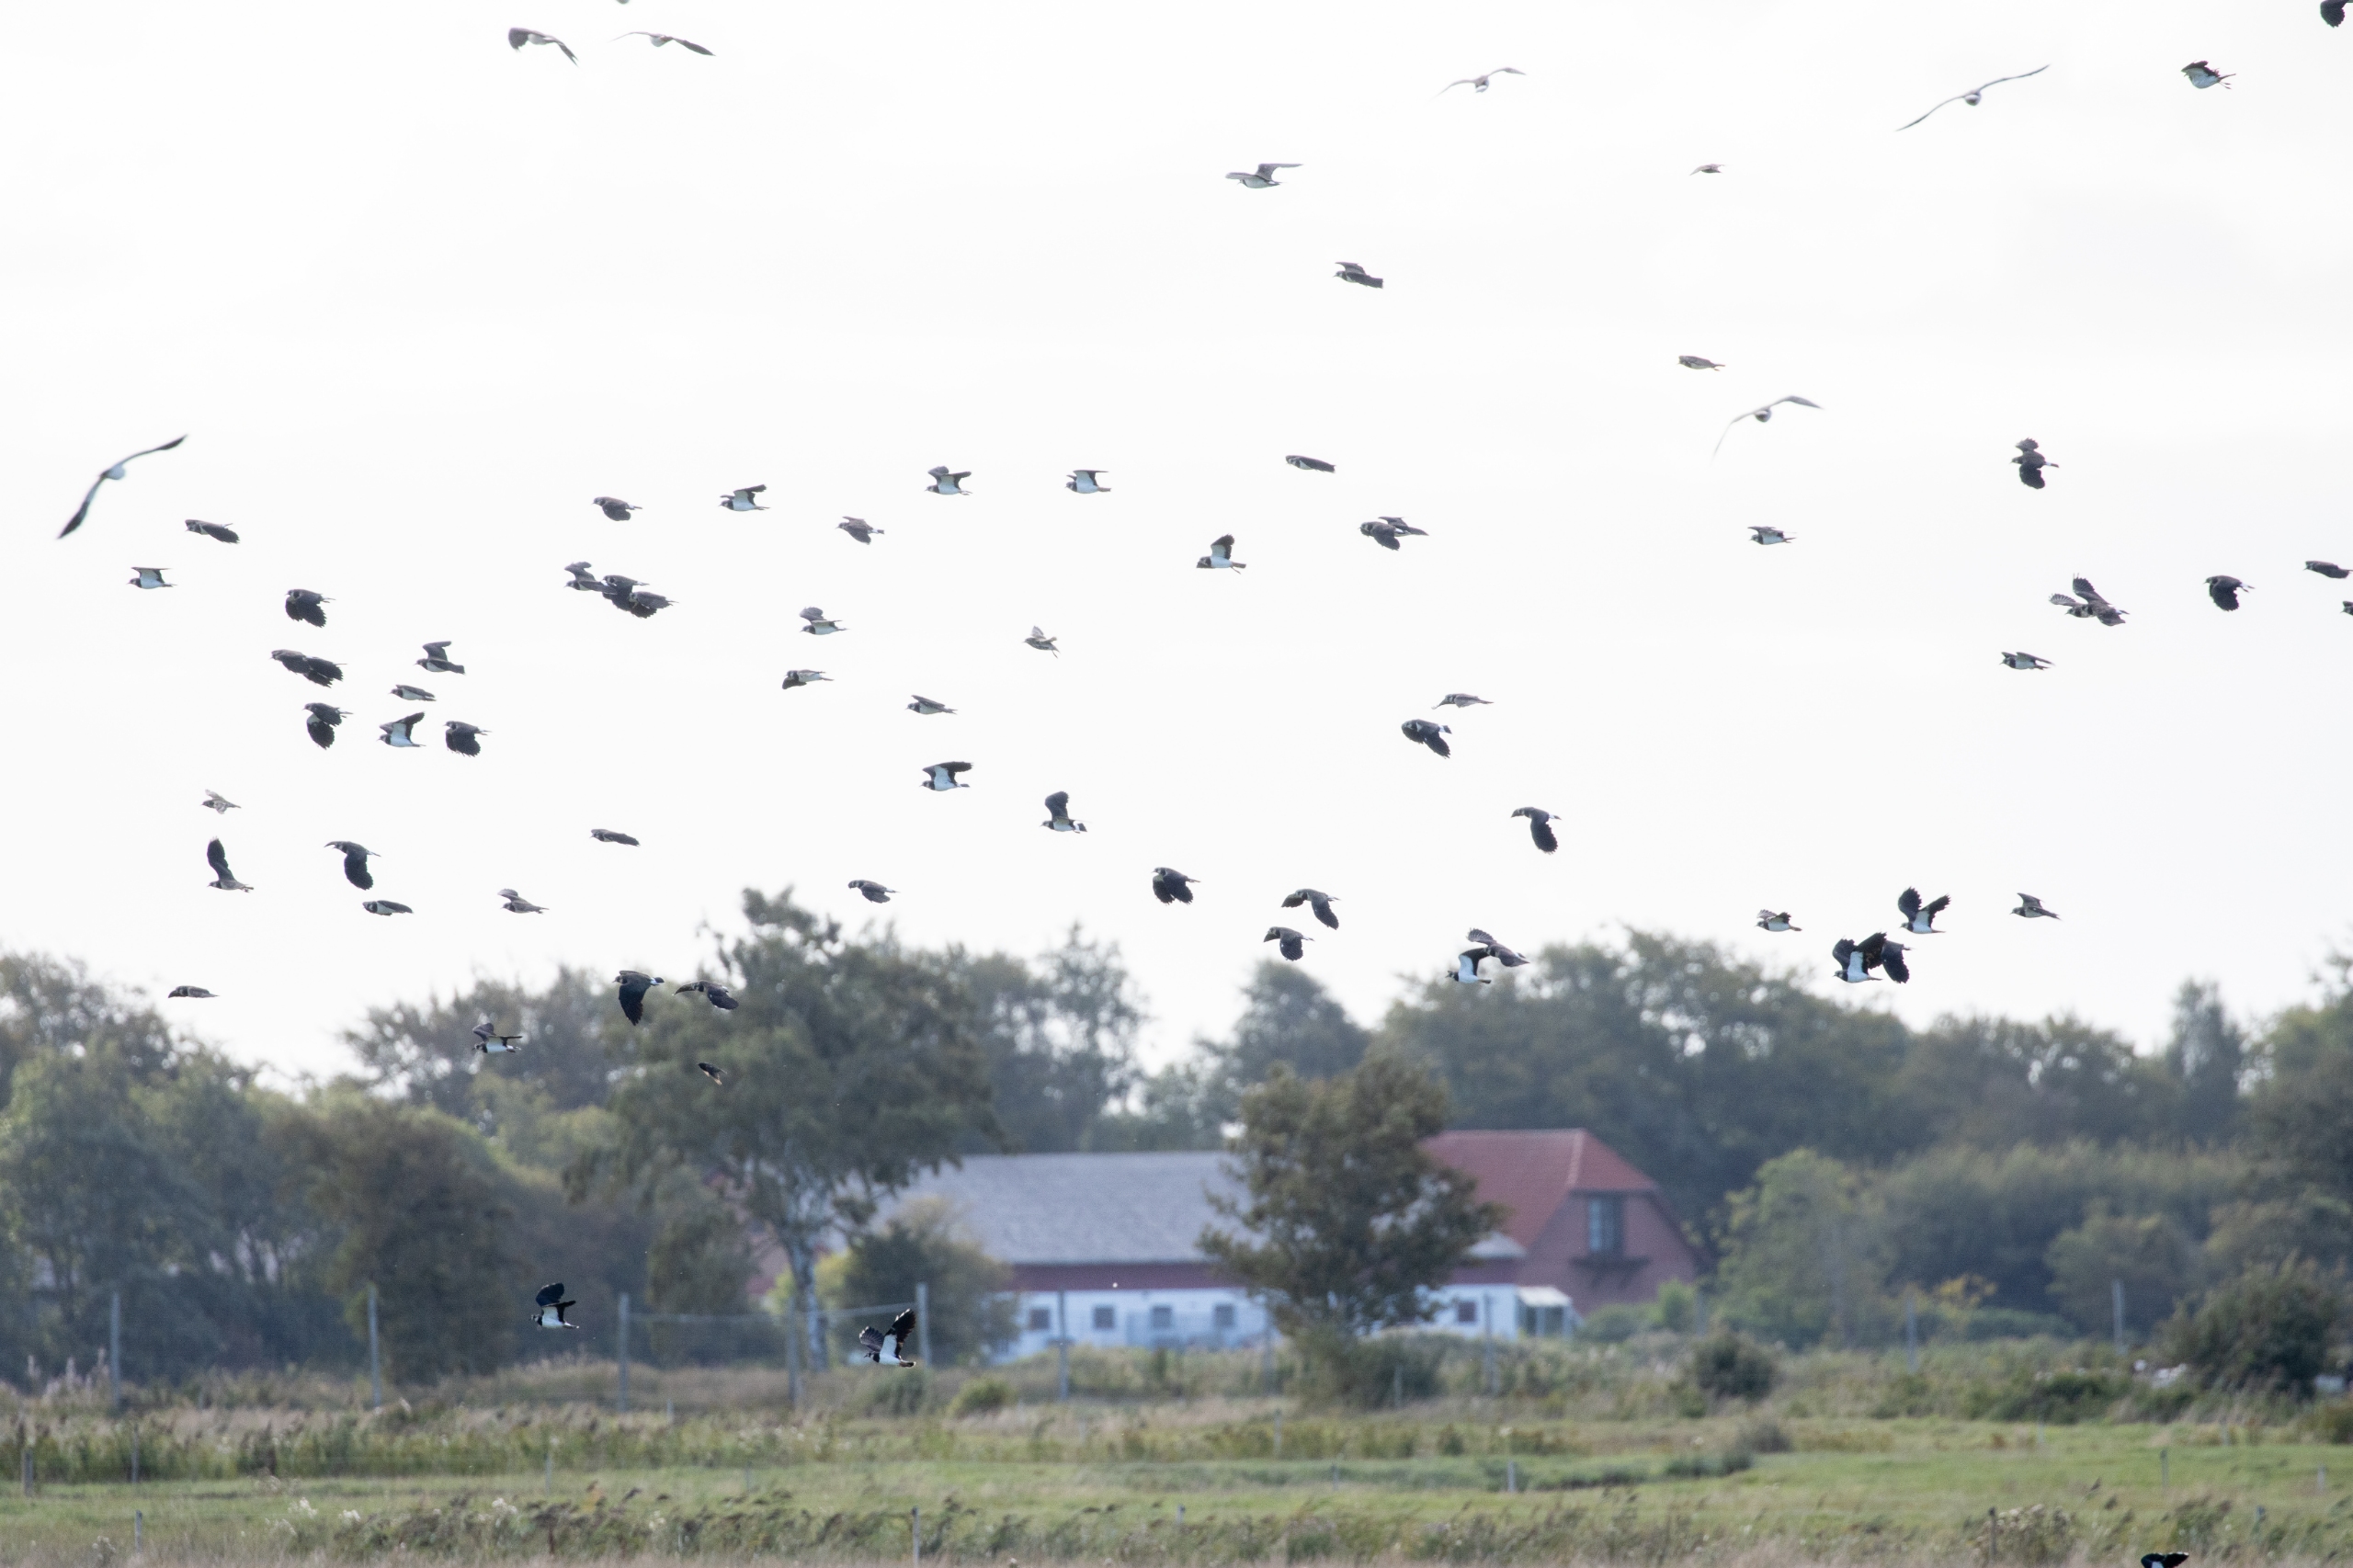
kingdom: Animalia
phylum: Chordata
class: Aves
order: Charadriiformes
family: Charadriidae
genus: Vanellus
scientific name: Vanellus vanellus
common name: Vibe
